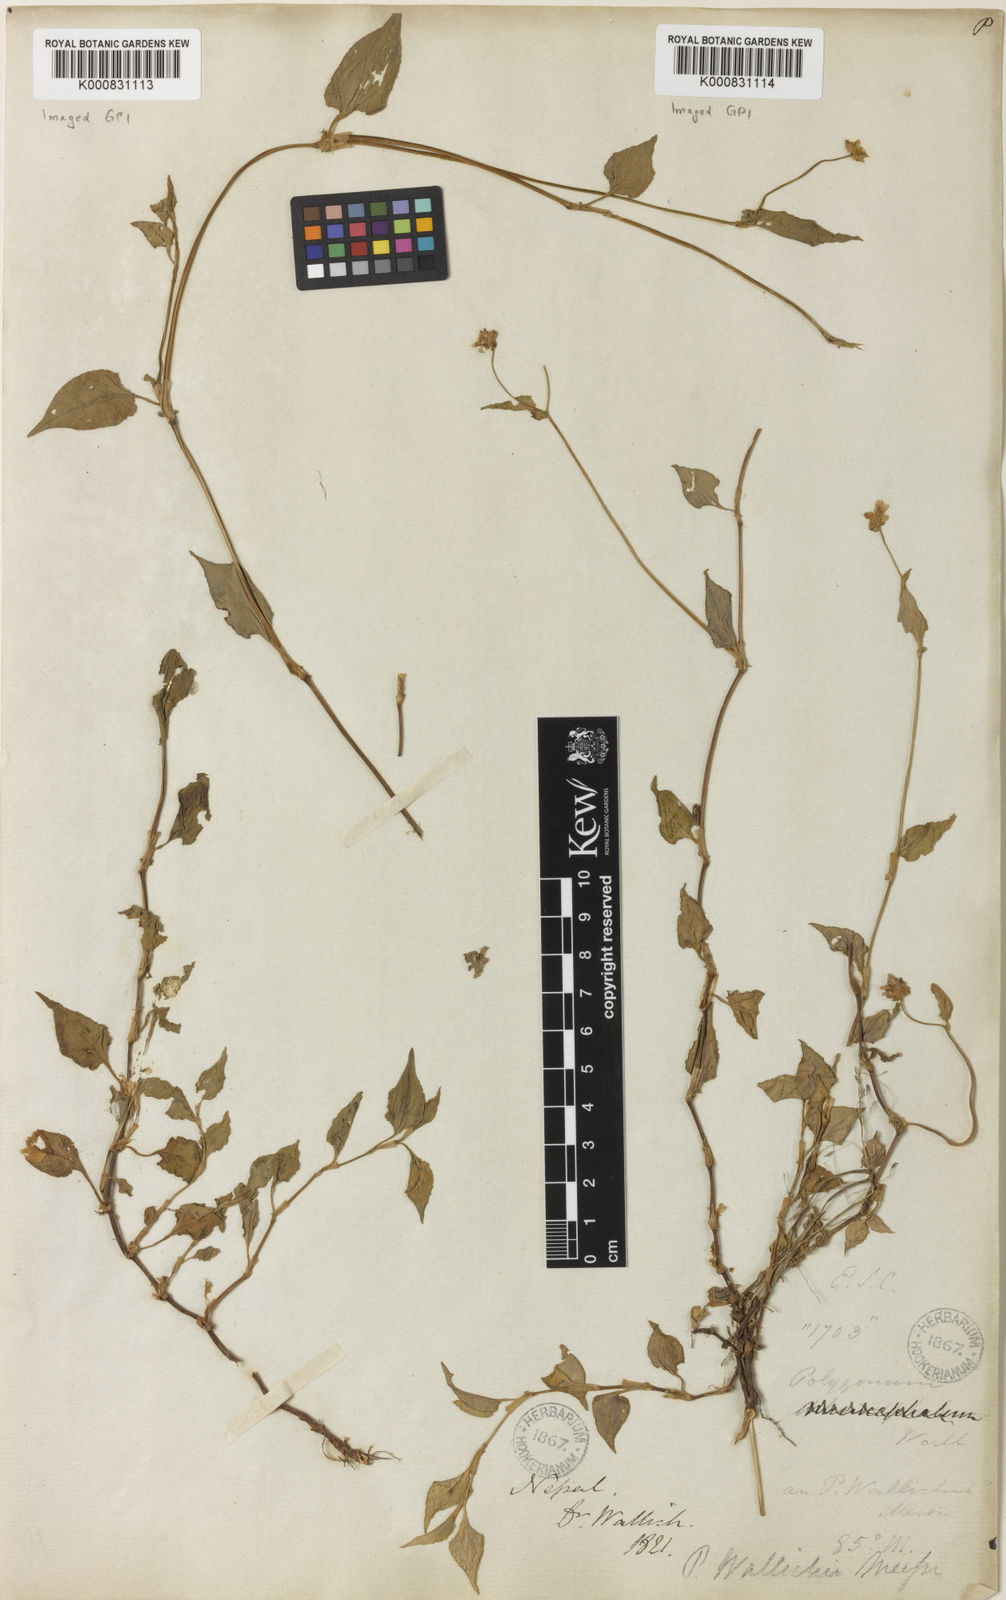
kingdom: Plantae
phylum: Tracheophyta
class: Magnoliopsida
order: Caryophyllales
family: Polygonaceae
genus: Persicaria
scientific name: Persicaria microcephala
